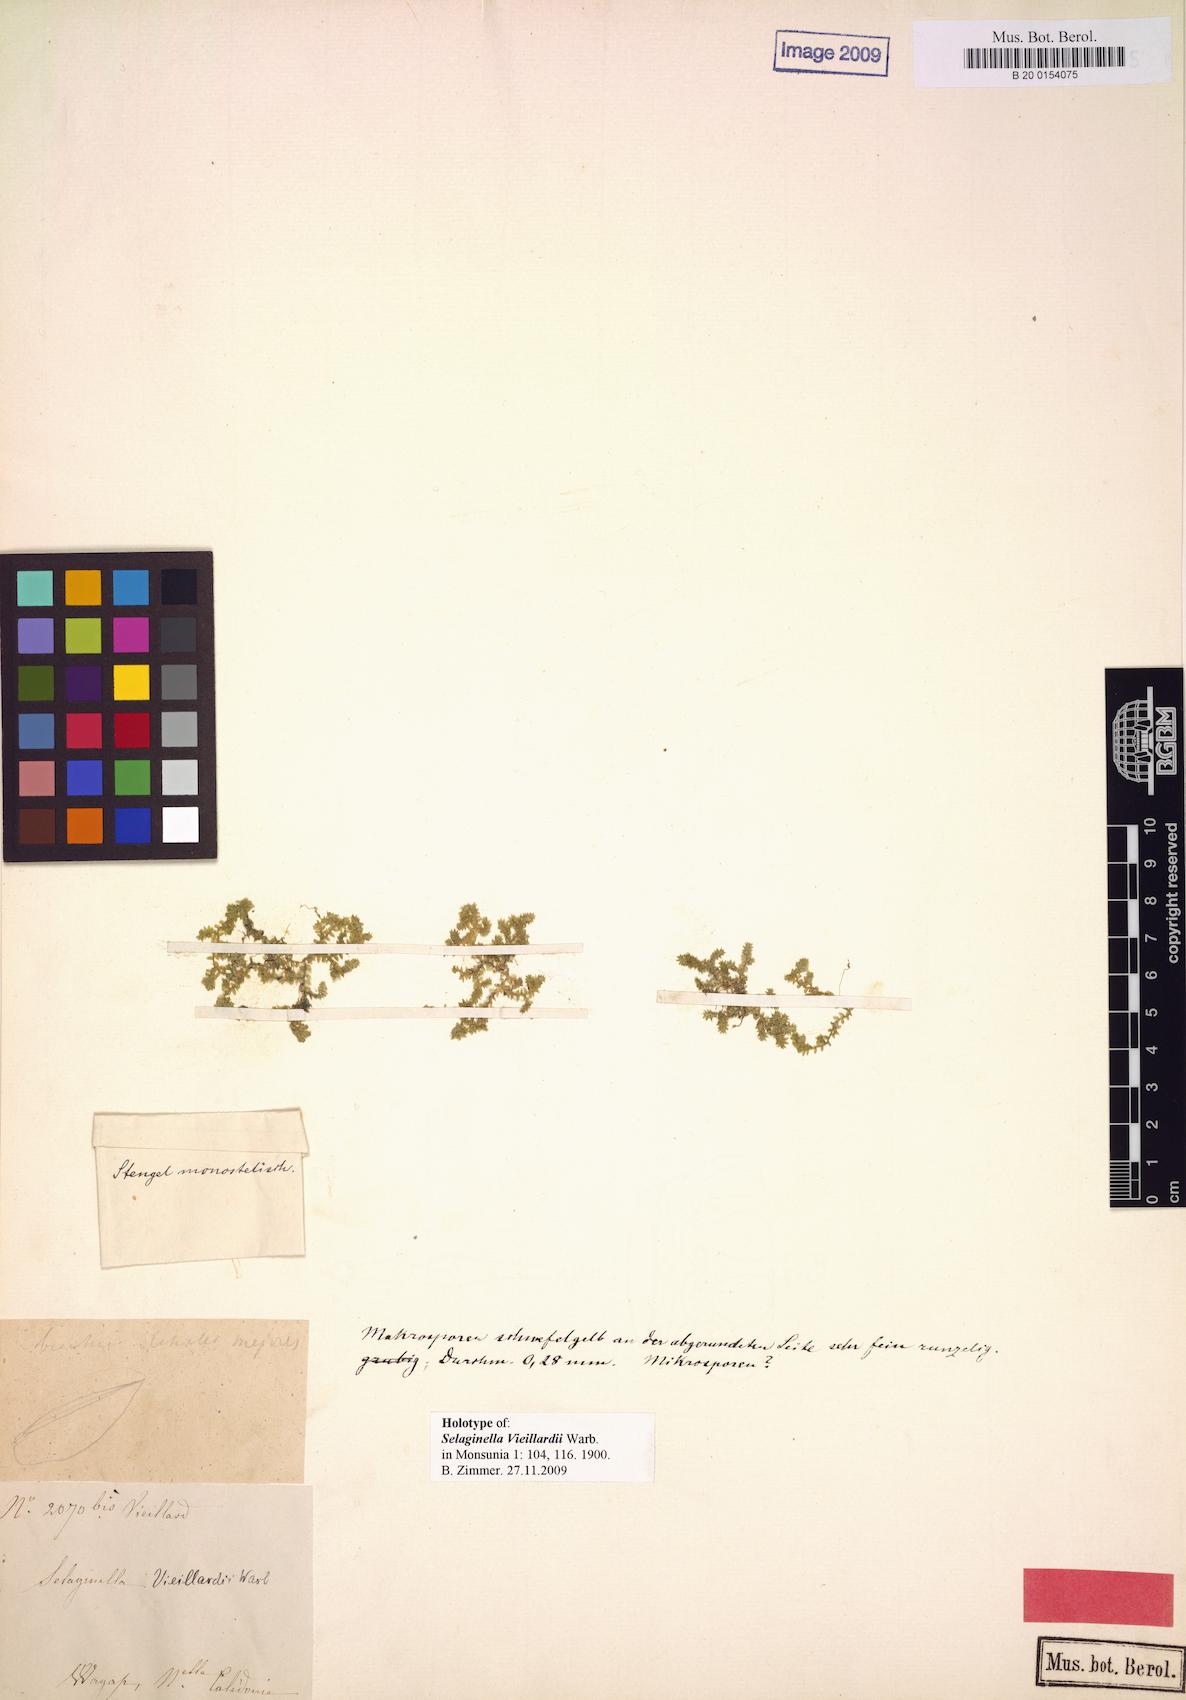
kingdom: Plantae
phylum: Tracheophyta
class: Lycopodiopsida
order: Selaginellales
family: Selaginellaceae
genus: Selaginella
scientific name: Selaginella vieillardii
